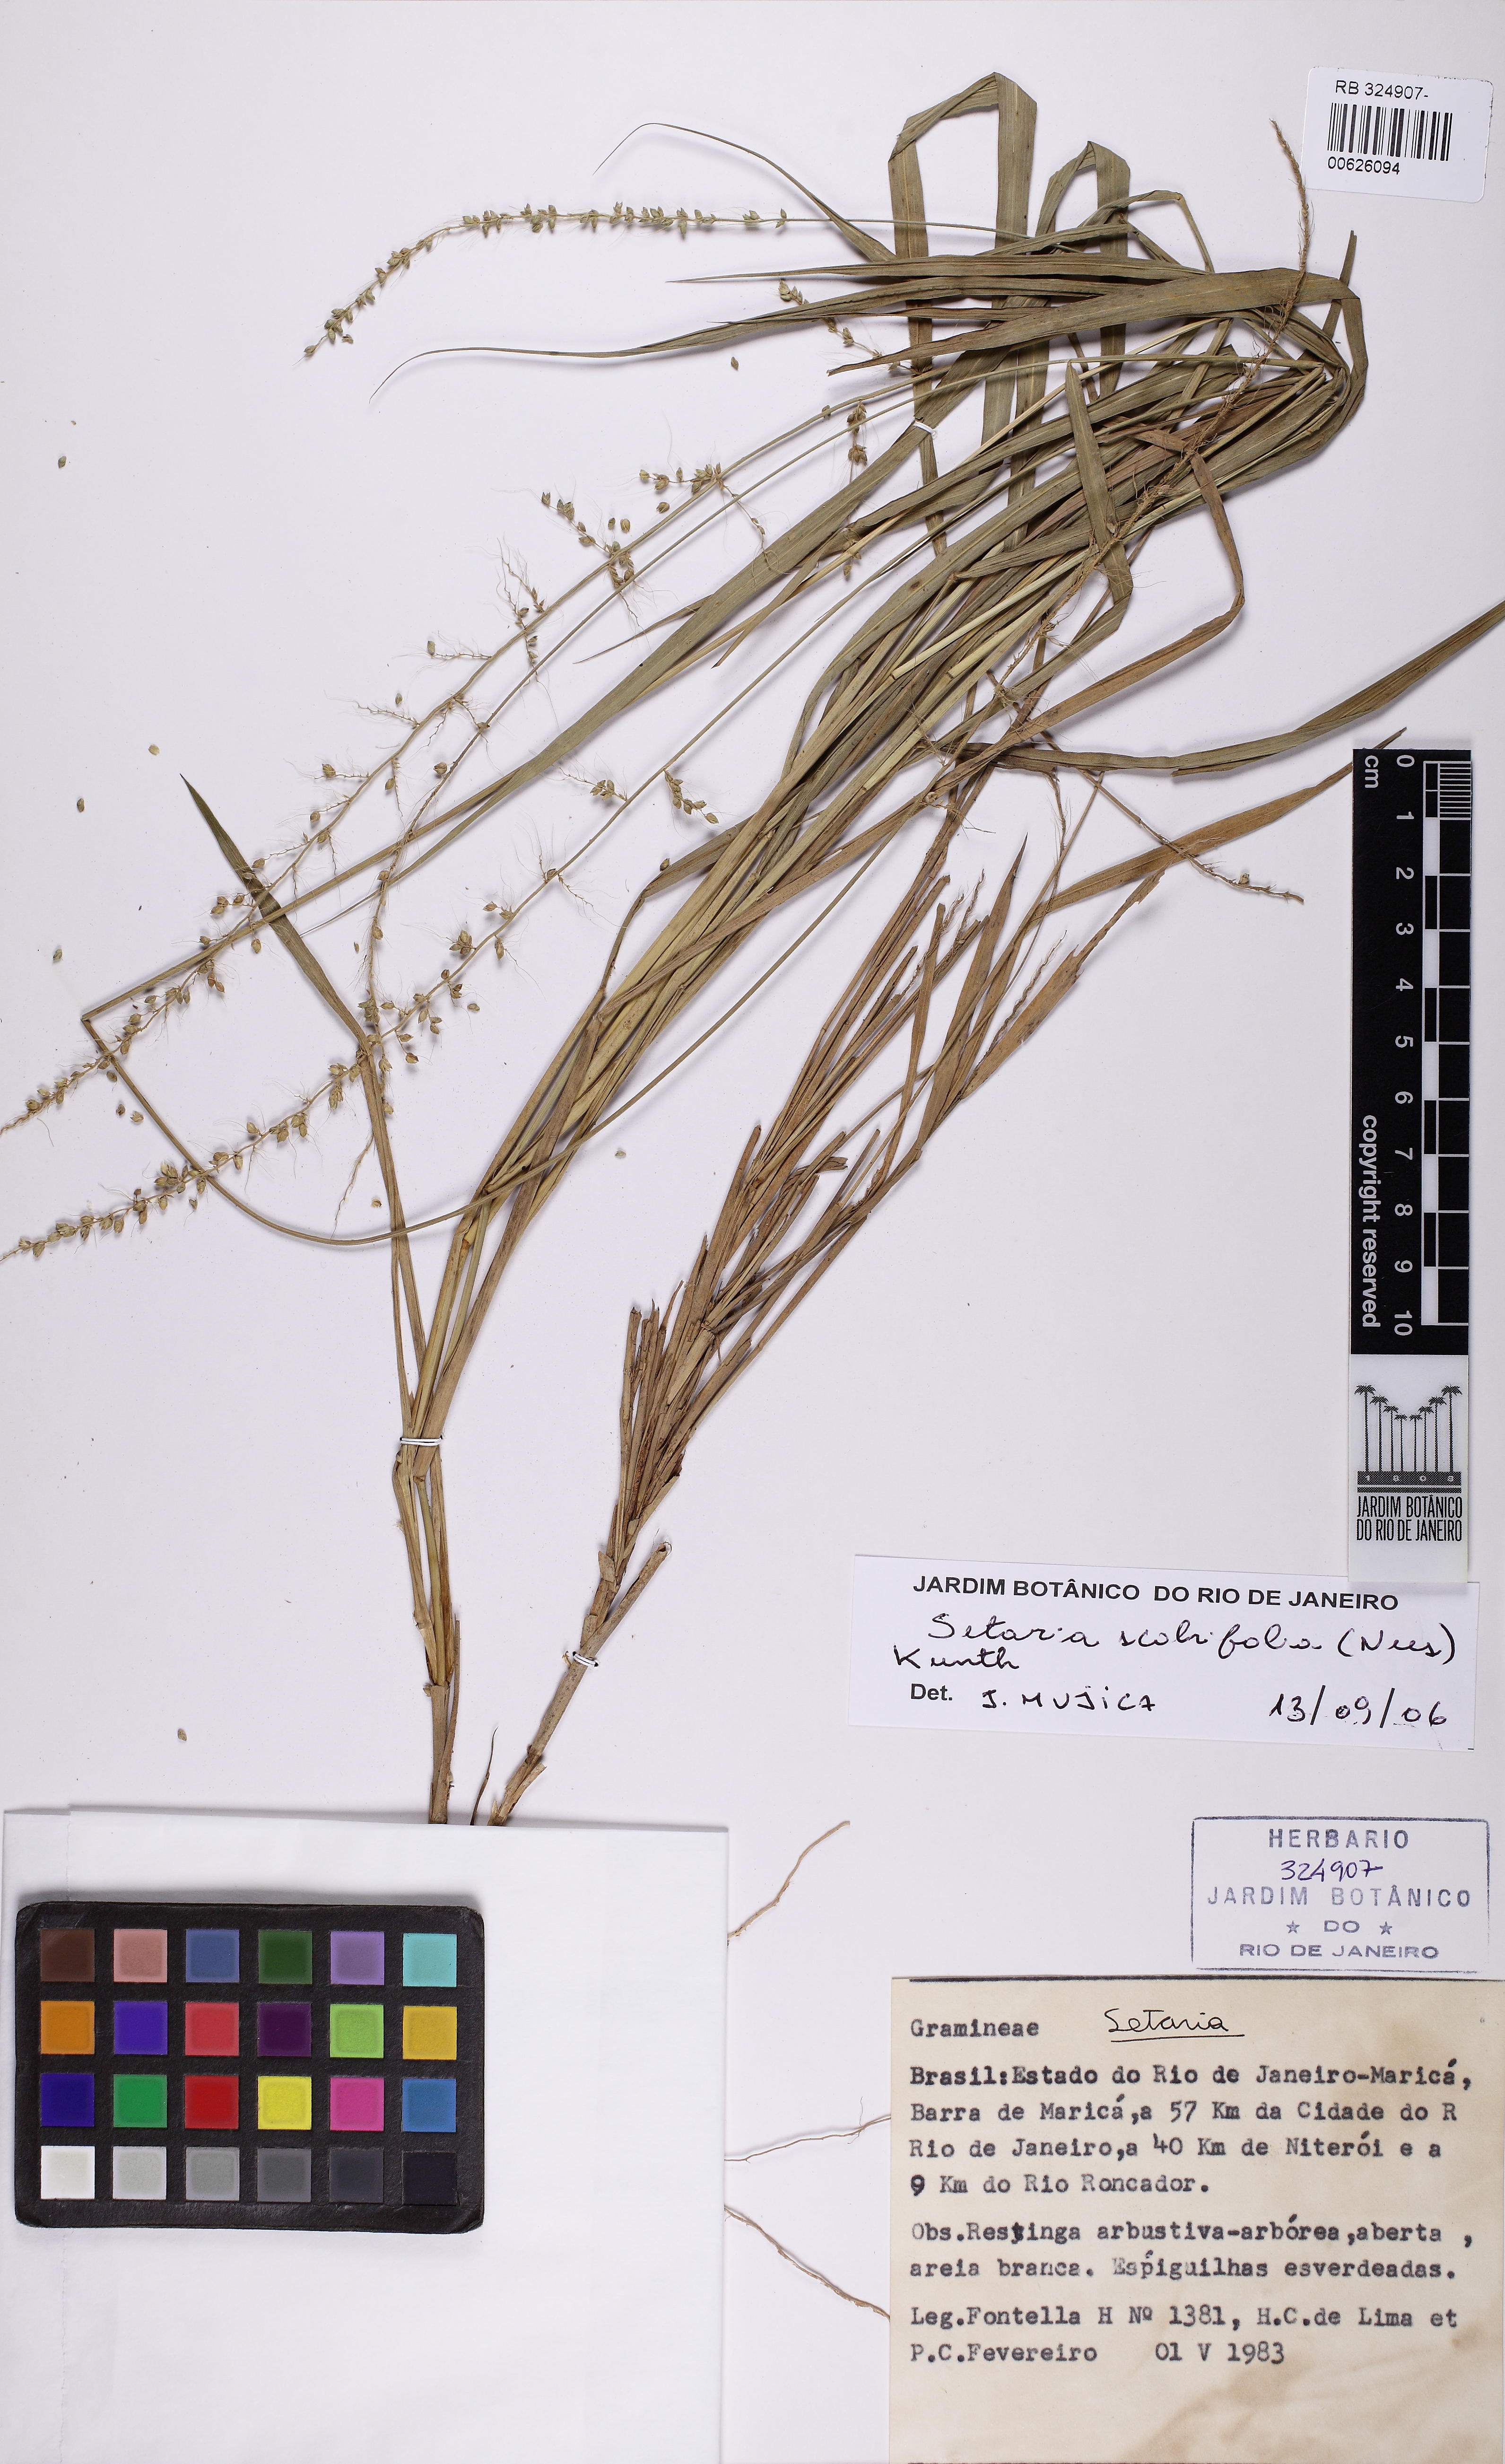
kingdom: Plantae
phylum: Tracheophyta
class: Liliopsida
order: Poales
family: Poaceae
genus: Setaria
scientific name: Setaria scabrifolia
